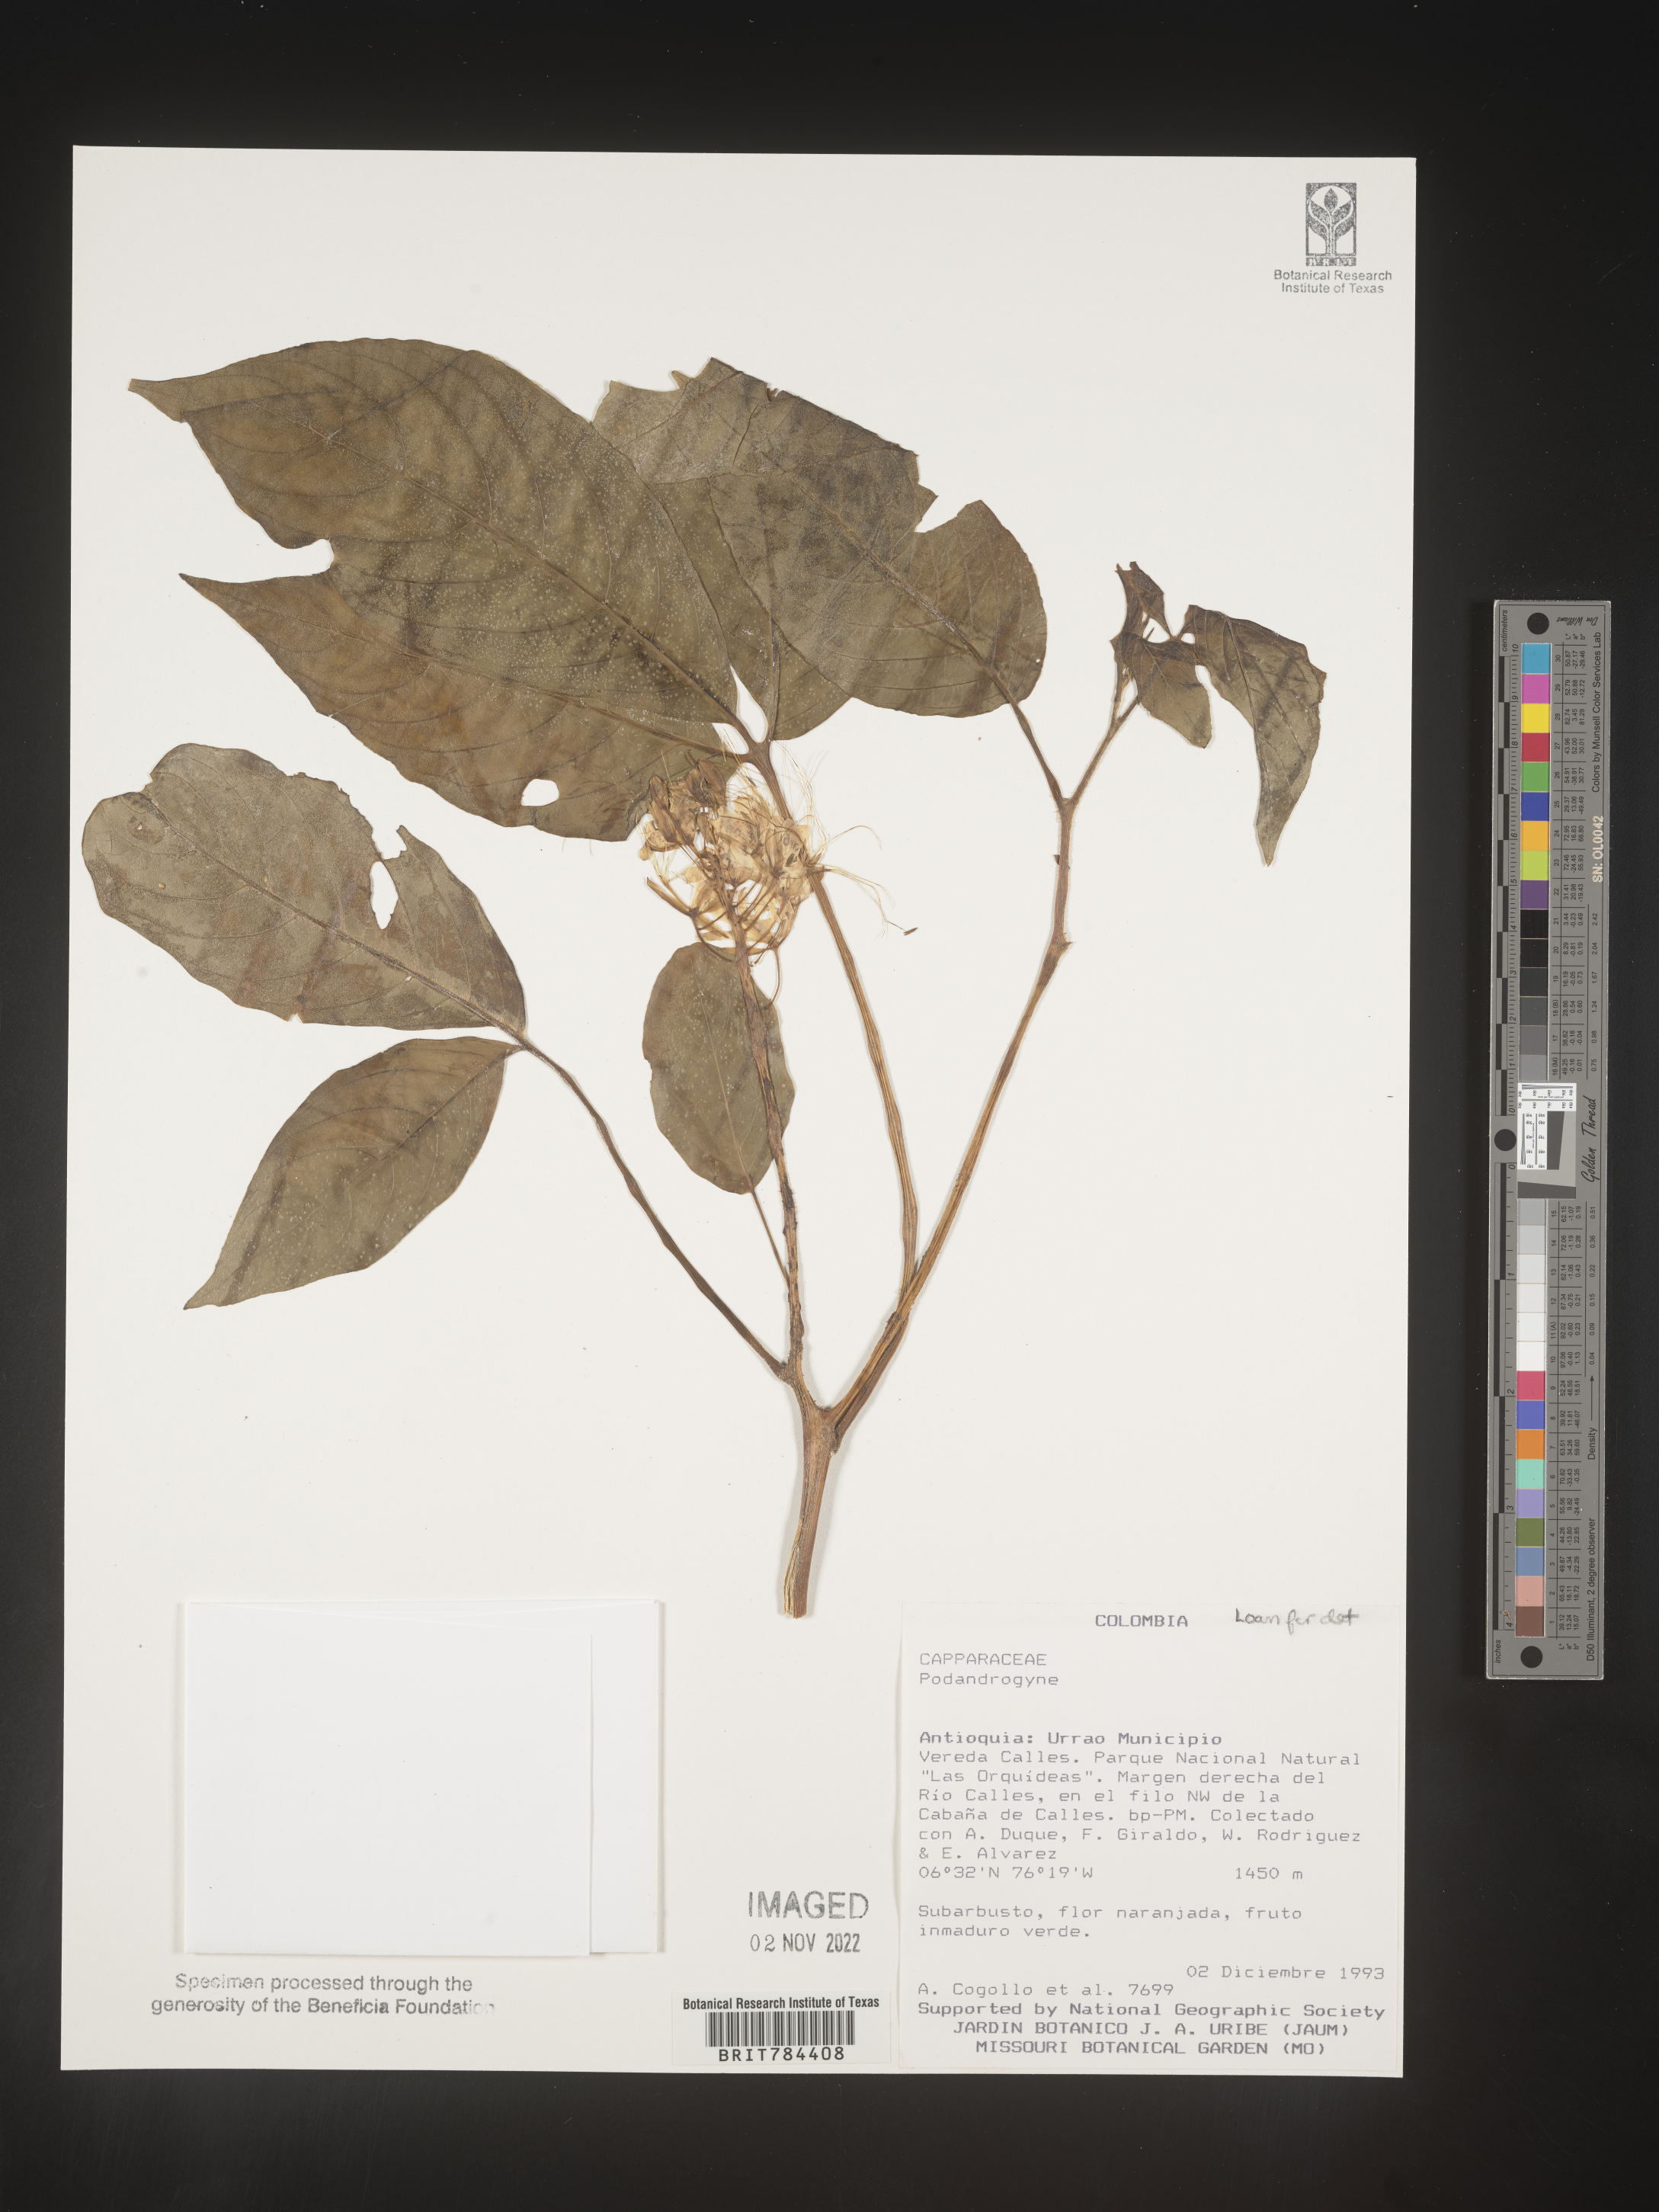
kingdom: Plantae
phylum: Tracheophyta
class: Magnoliopsida
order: Brassicales
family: Cleomaceae
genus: Podandrogyne
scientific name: Podandrogyne
